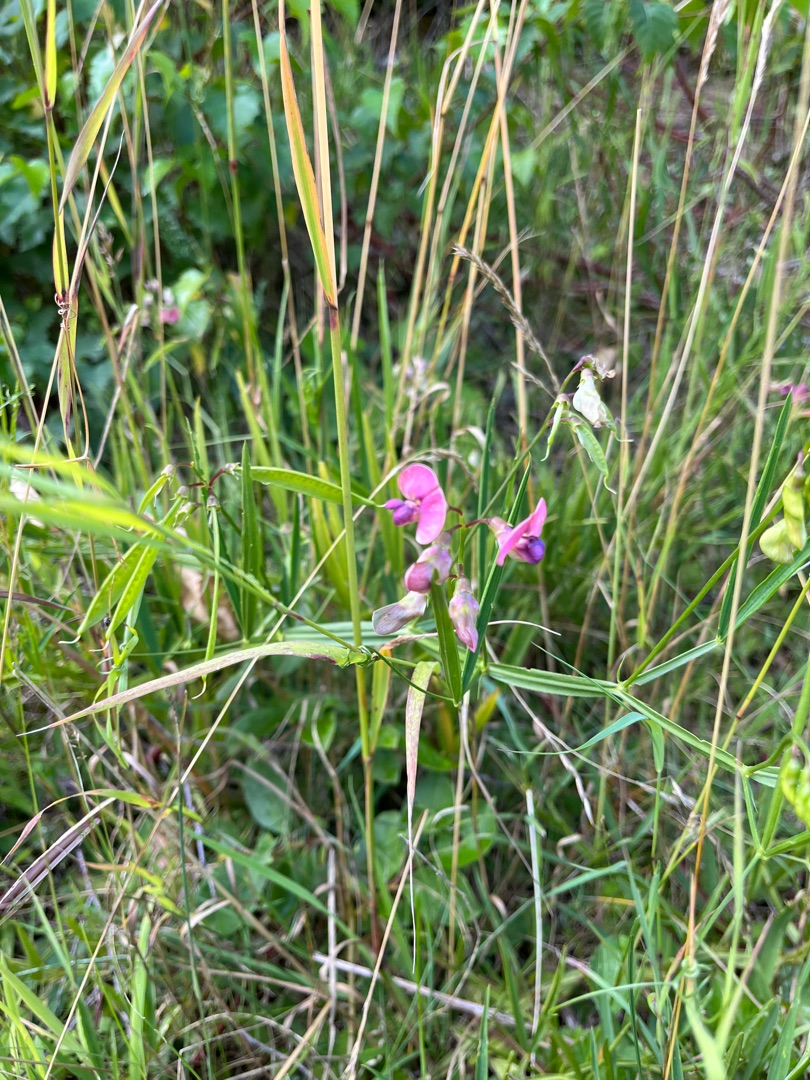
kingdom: Plantae
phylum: Tracheophyta
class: Magnoliopsida
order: Fabales
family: Fabaceae
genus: Lathyrus
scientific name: Lathyrus sylvestris
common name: Skov-fladbælg
